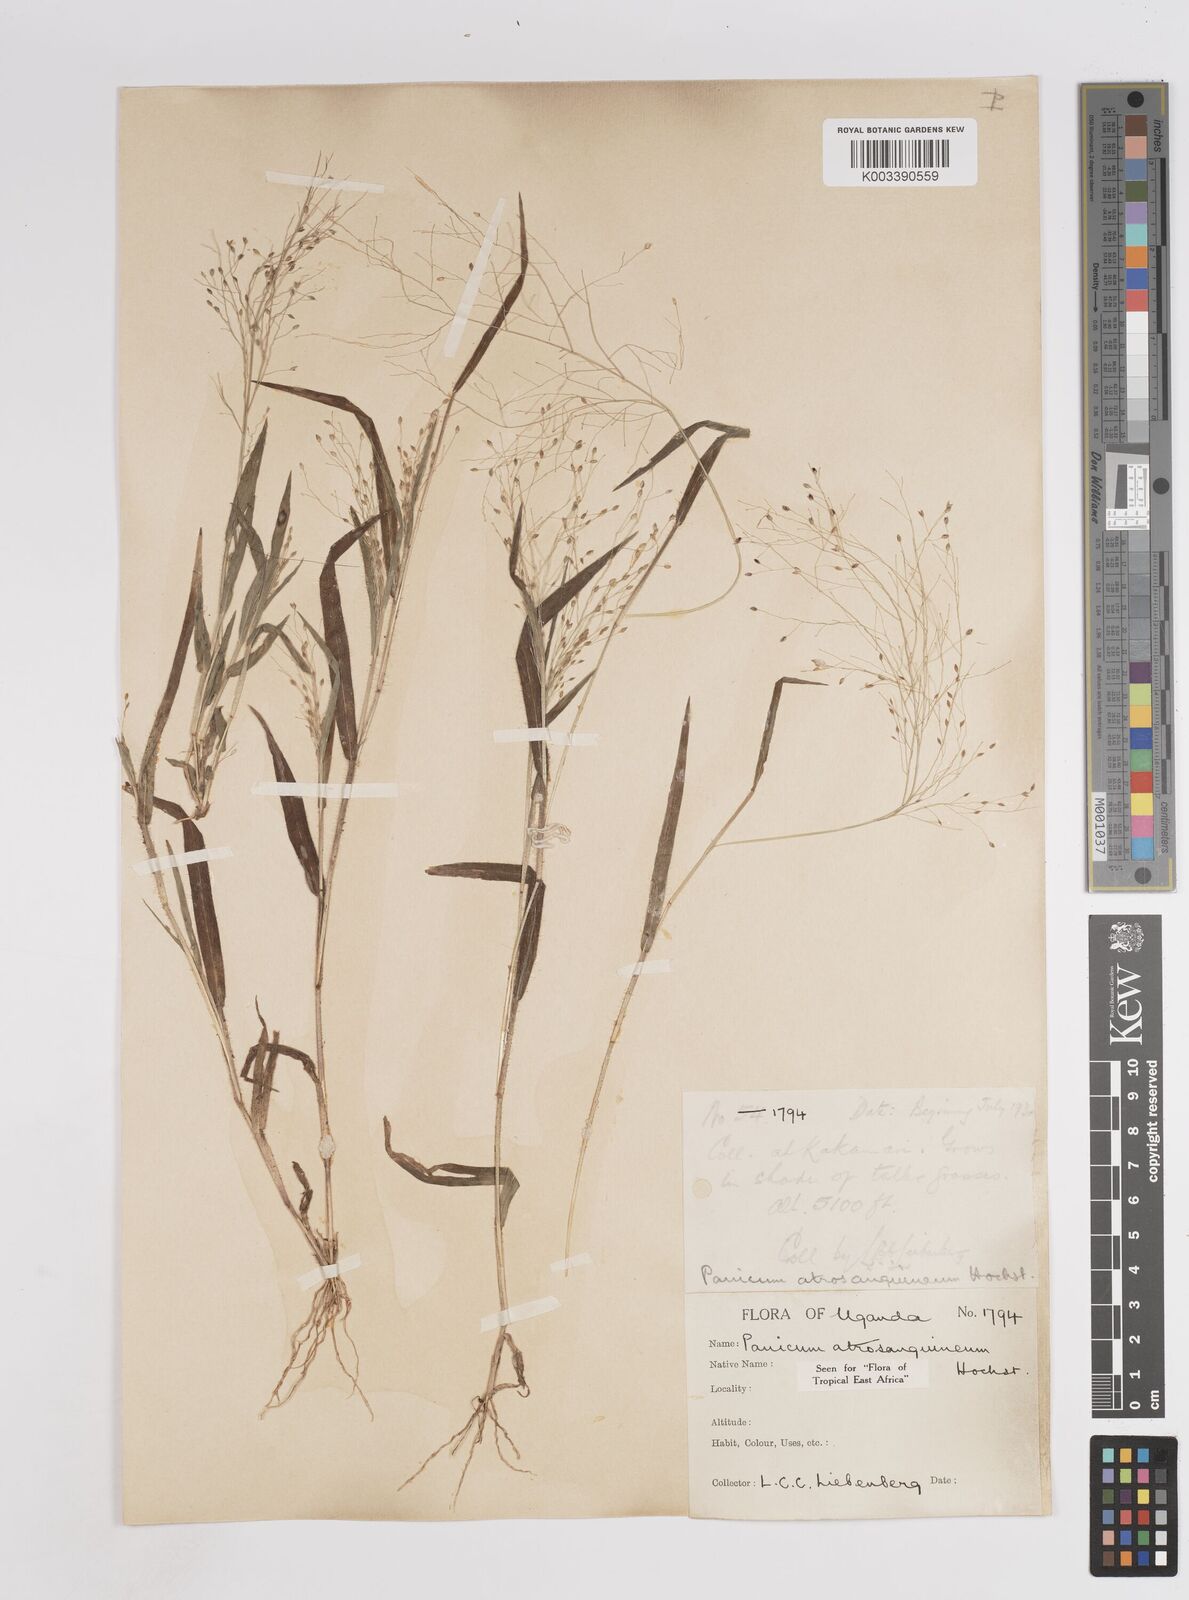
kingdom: Plantae
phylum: Tracheophyta
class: Liliopsida
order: Poales
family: Poaceae
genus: Panicum
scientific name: Panicum atrosanguineum
